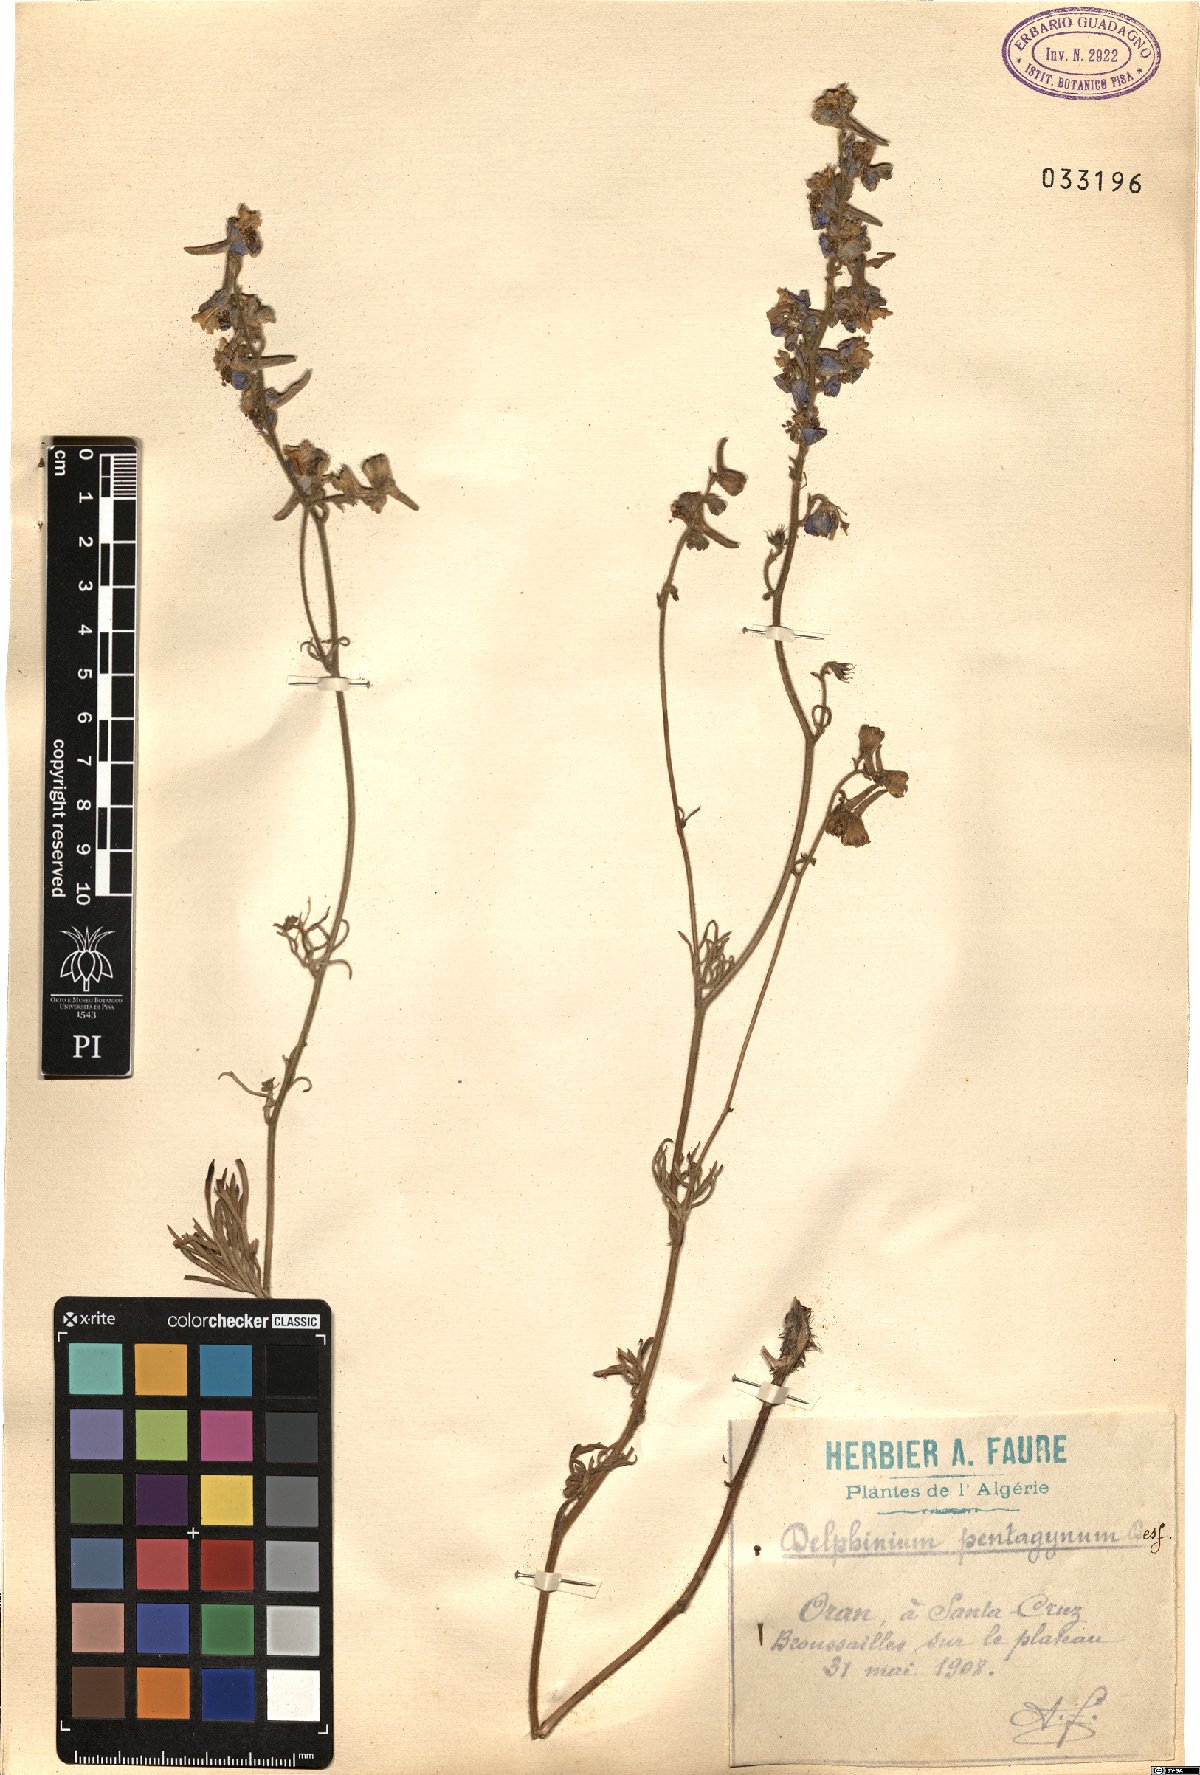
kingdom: Plantae
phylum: Tracheophyta
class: Magnoliopsida
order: Ranunculales
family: Ranunculaceae
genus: Delphinium
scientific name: Delphinium pentagynum
